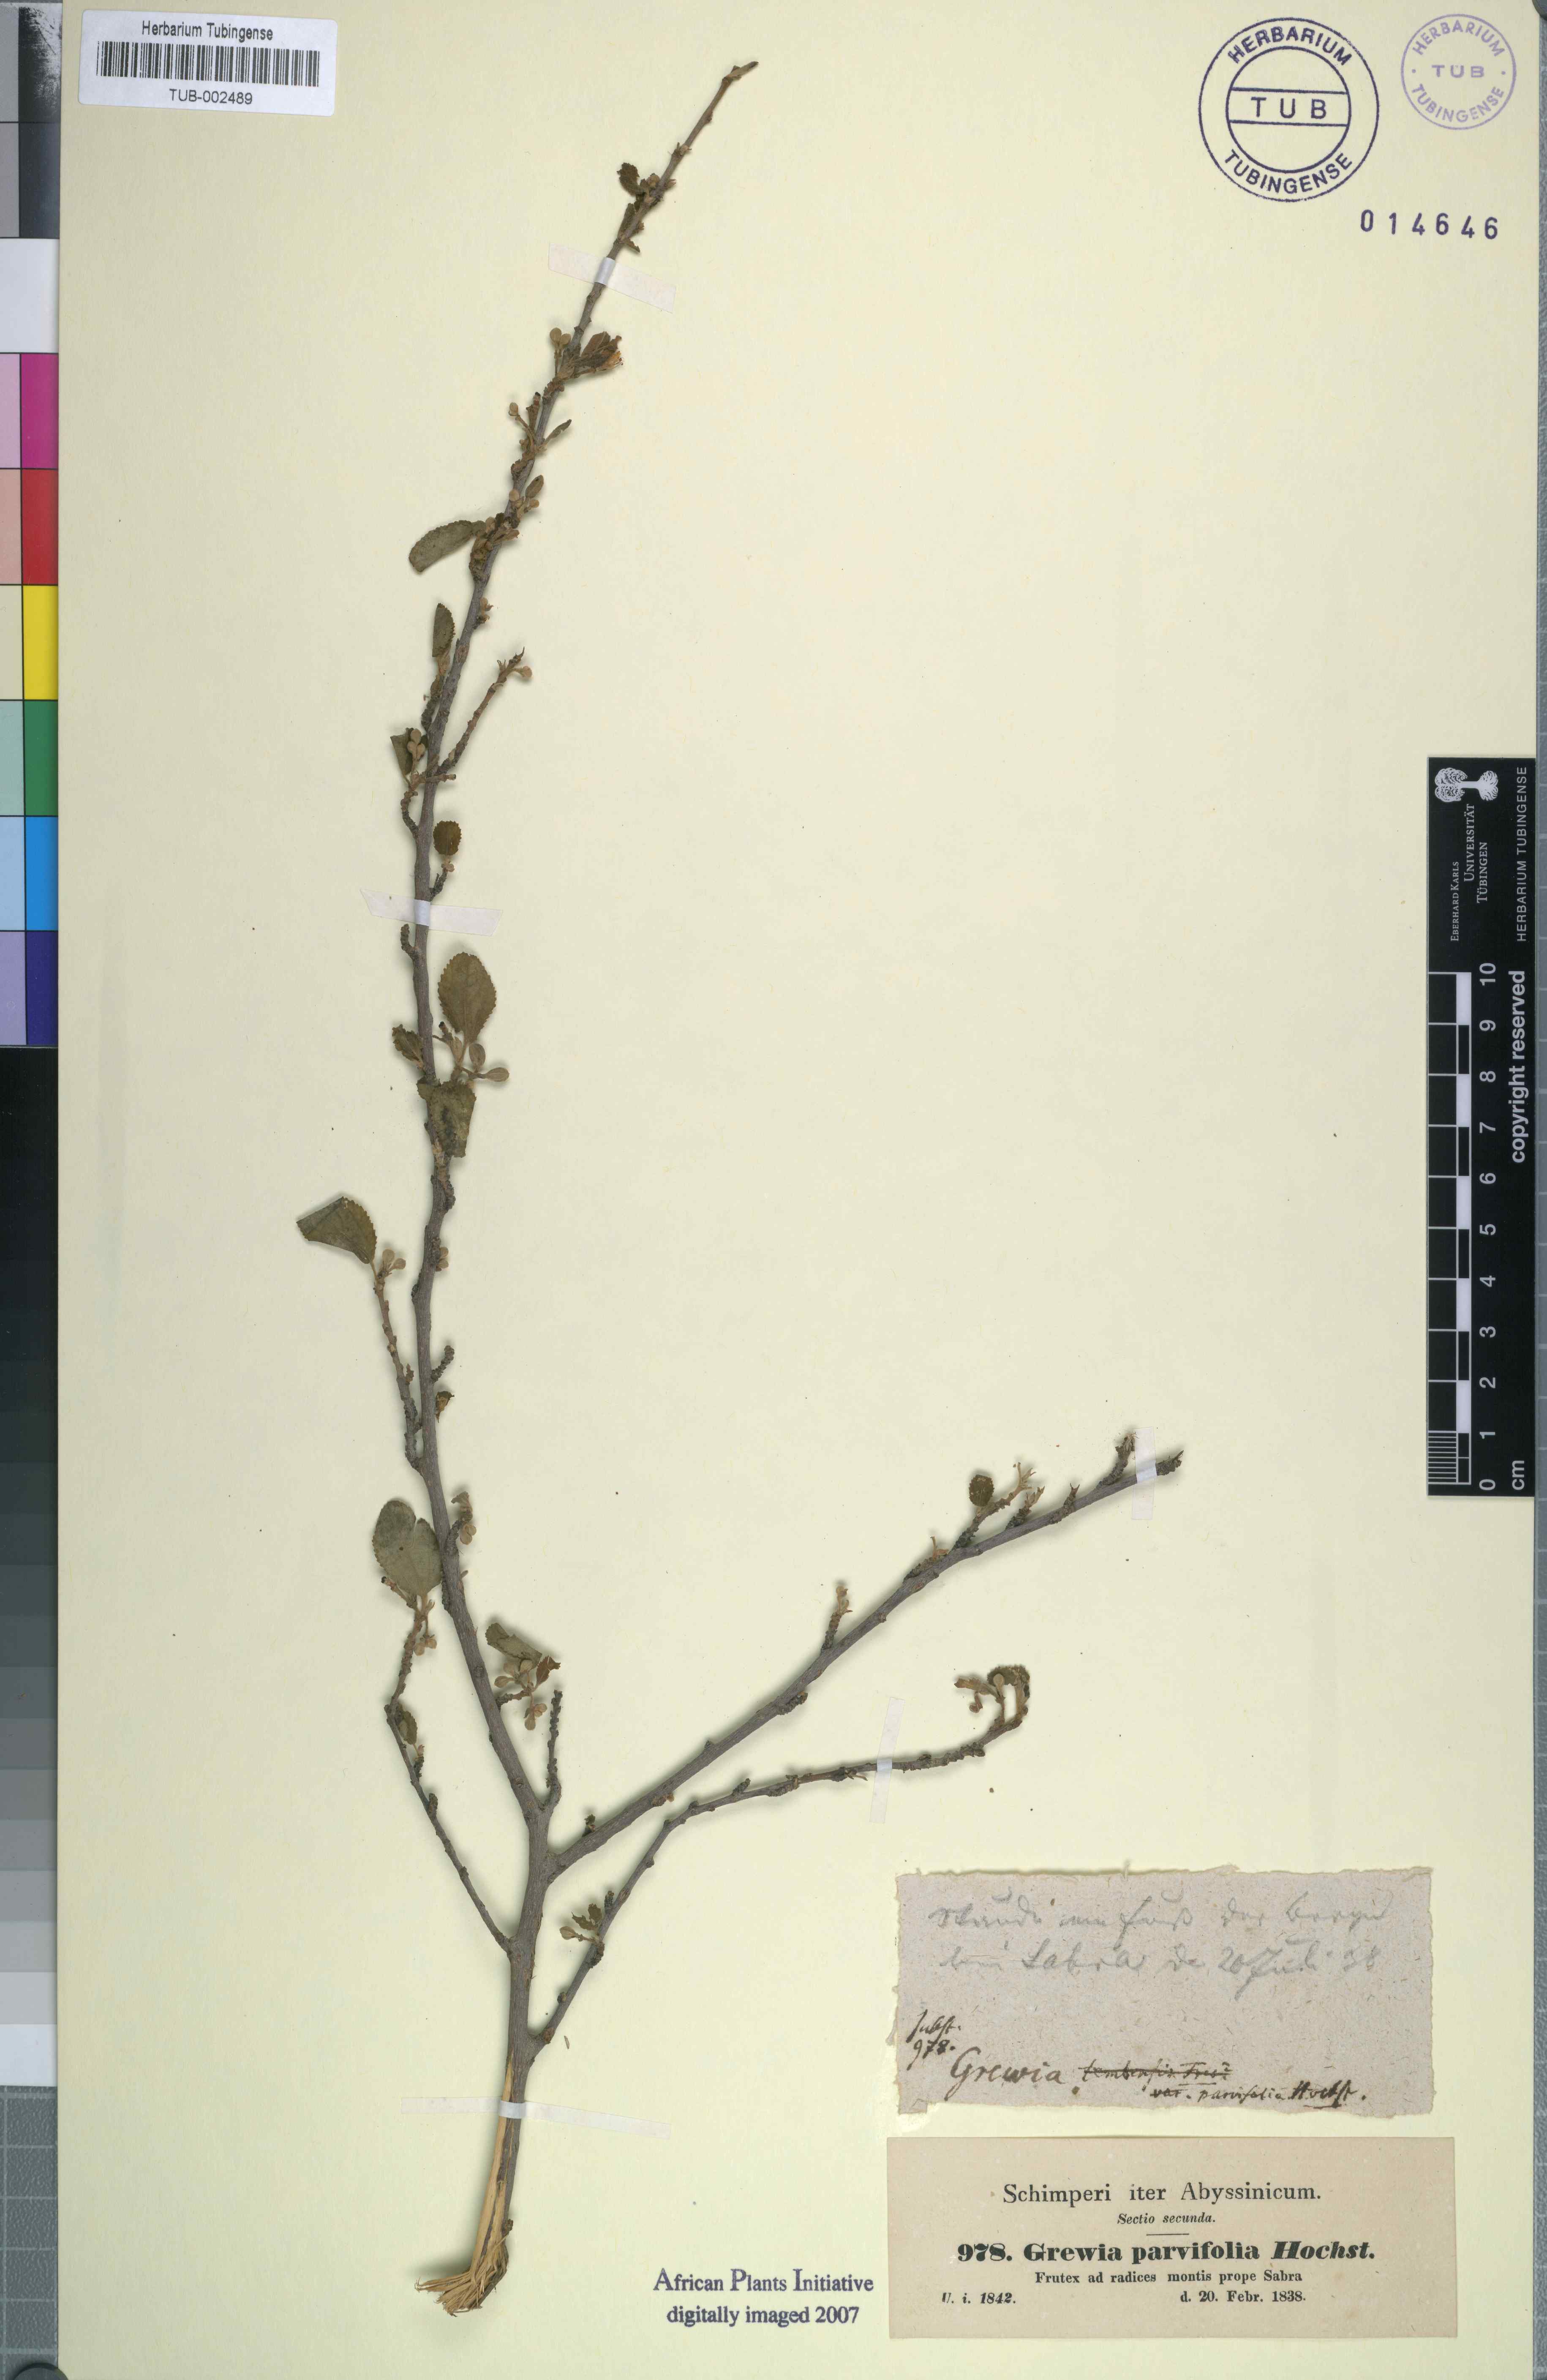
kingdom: Plantae
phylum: Tracheophyta
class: Magnoliopsida
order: Malvales
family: Malvaceae
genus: Grewia
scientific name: Grewia tembensis
